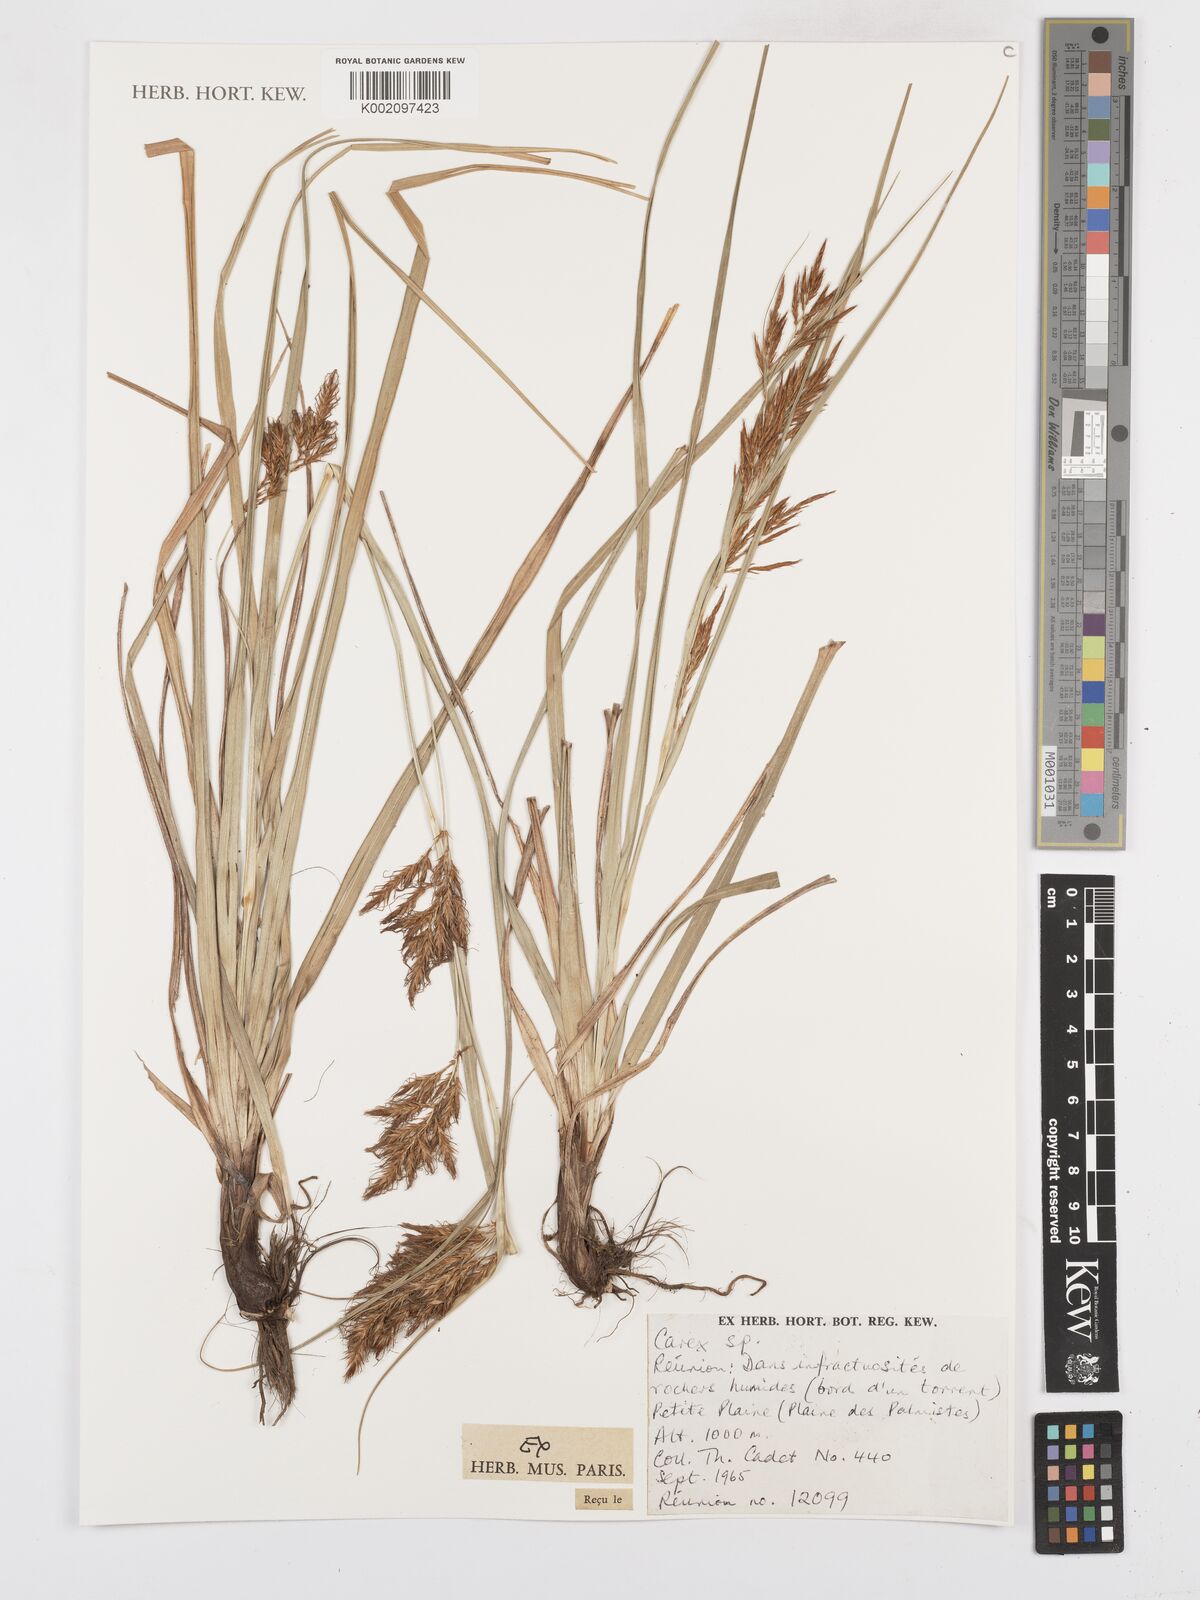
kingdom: Plantae
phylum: Tracheophyta
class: Liliopsida
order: Poales
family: Cyperaceae
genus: Carex
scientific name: Carex
